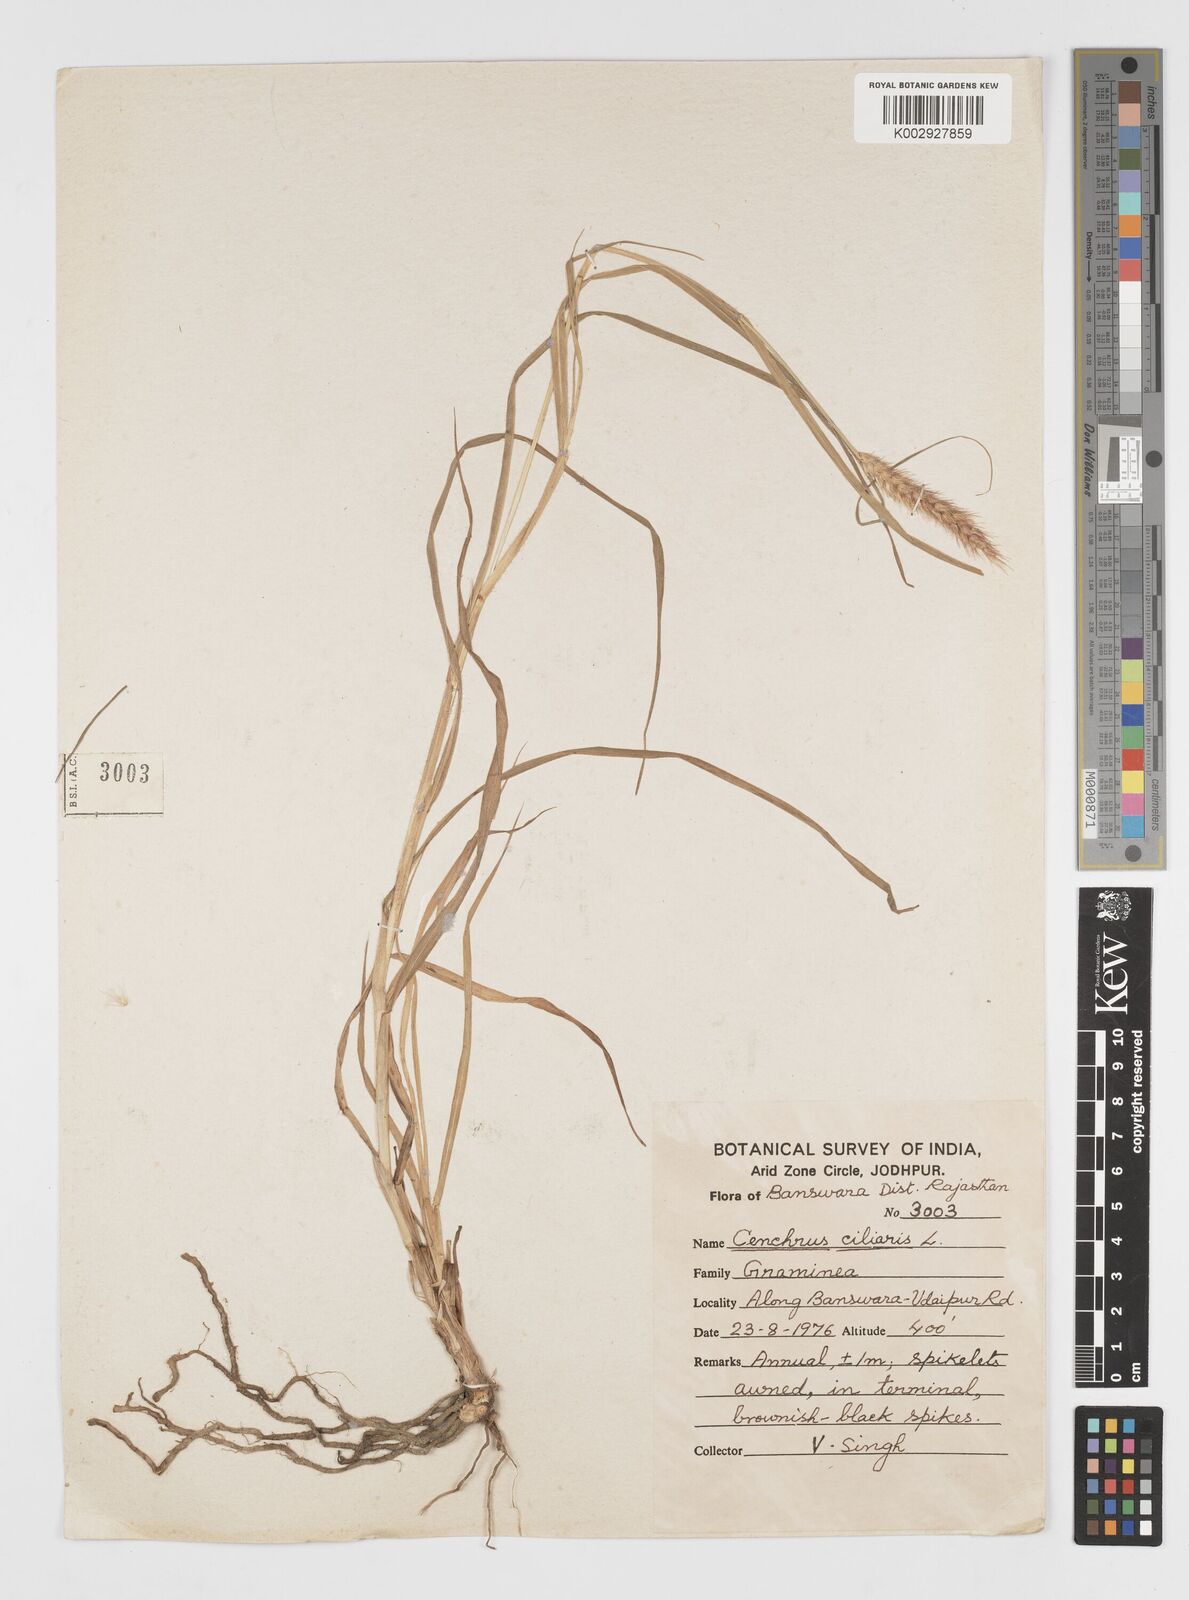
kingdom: Plantae
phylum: Tracheophyta
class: Liliopsida
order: Poales
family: Poaceae
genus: Cenchrus
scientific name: Cenchrus ciliaris
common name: Buffelgrass
